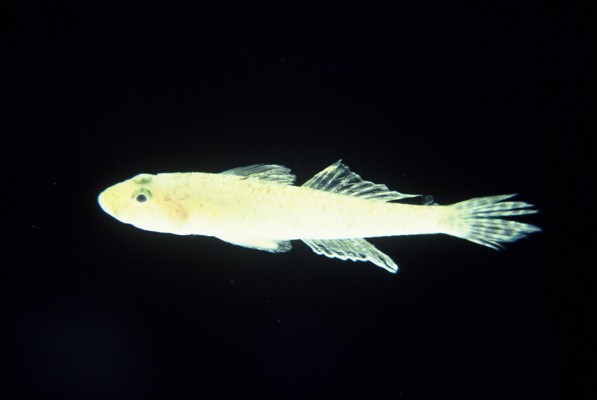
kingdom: Animalia
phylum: Chordata
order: Perciformes
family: Gobiidae
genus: Glossogobius
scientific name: Glossogobius callidus
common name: River goby
